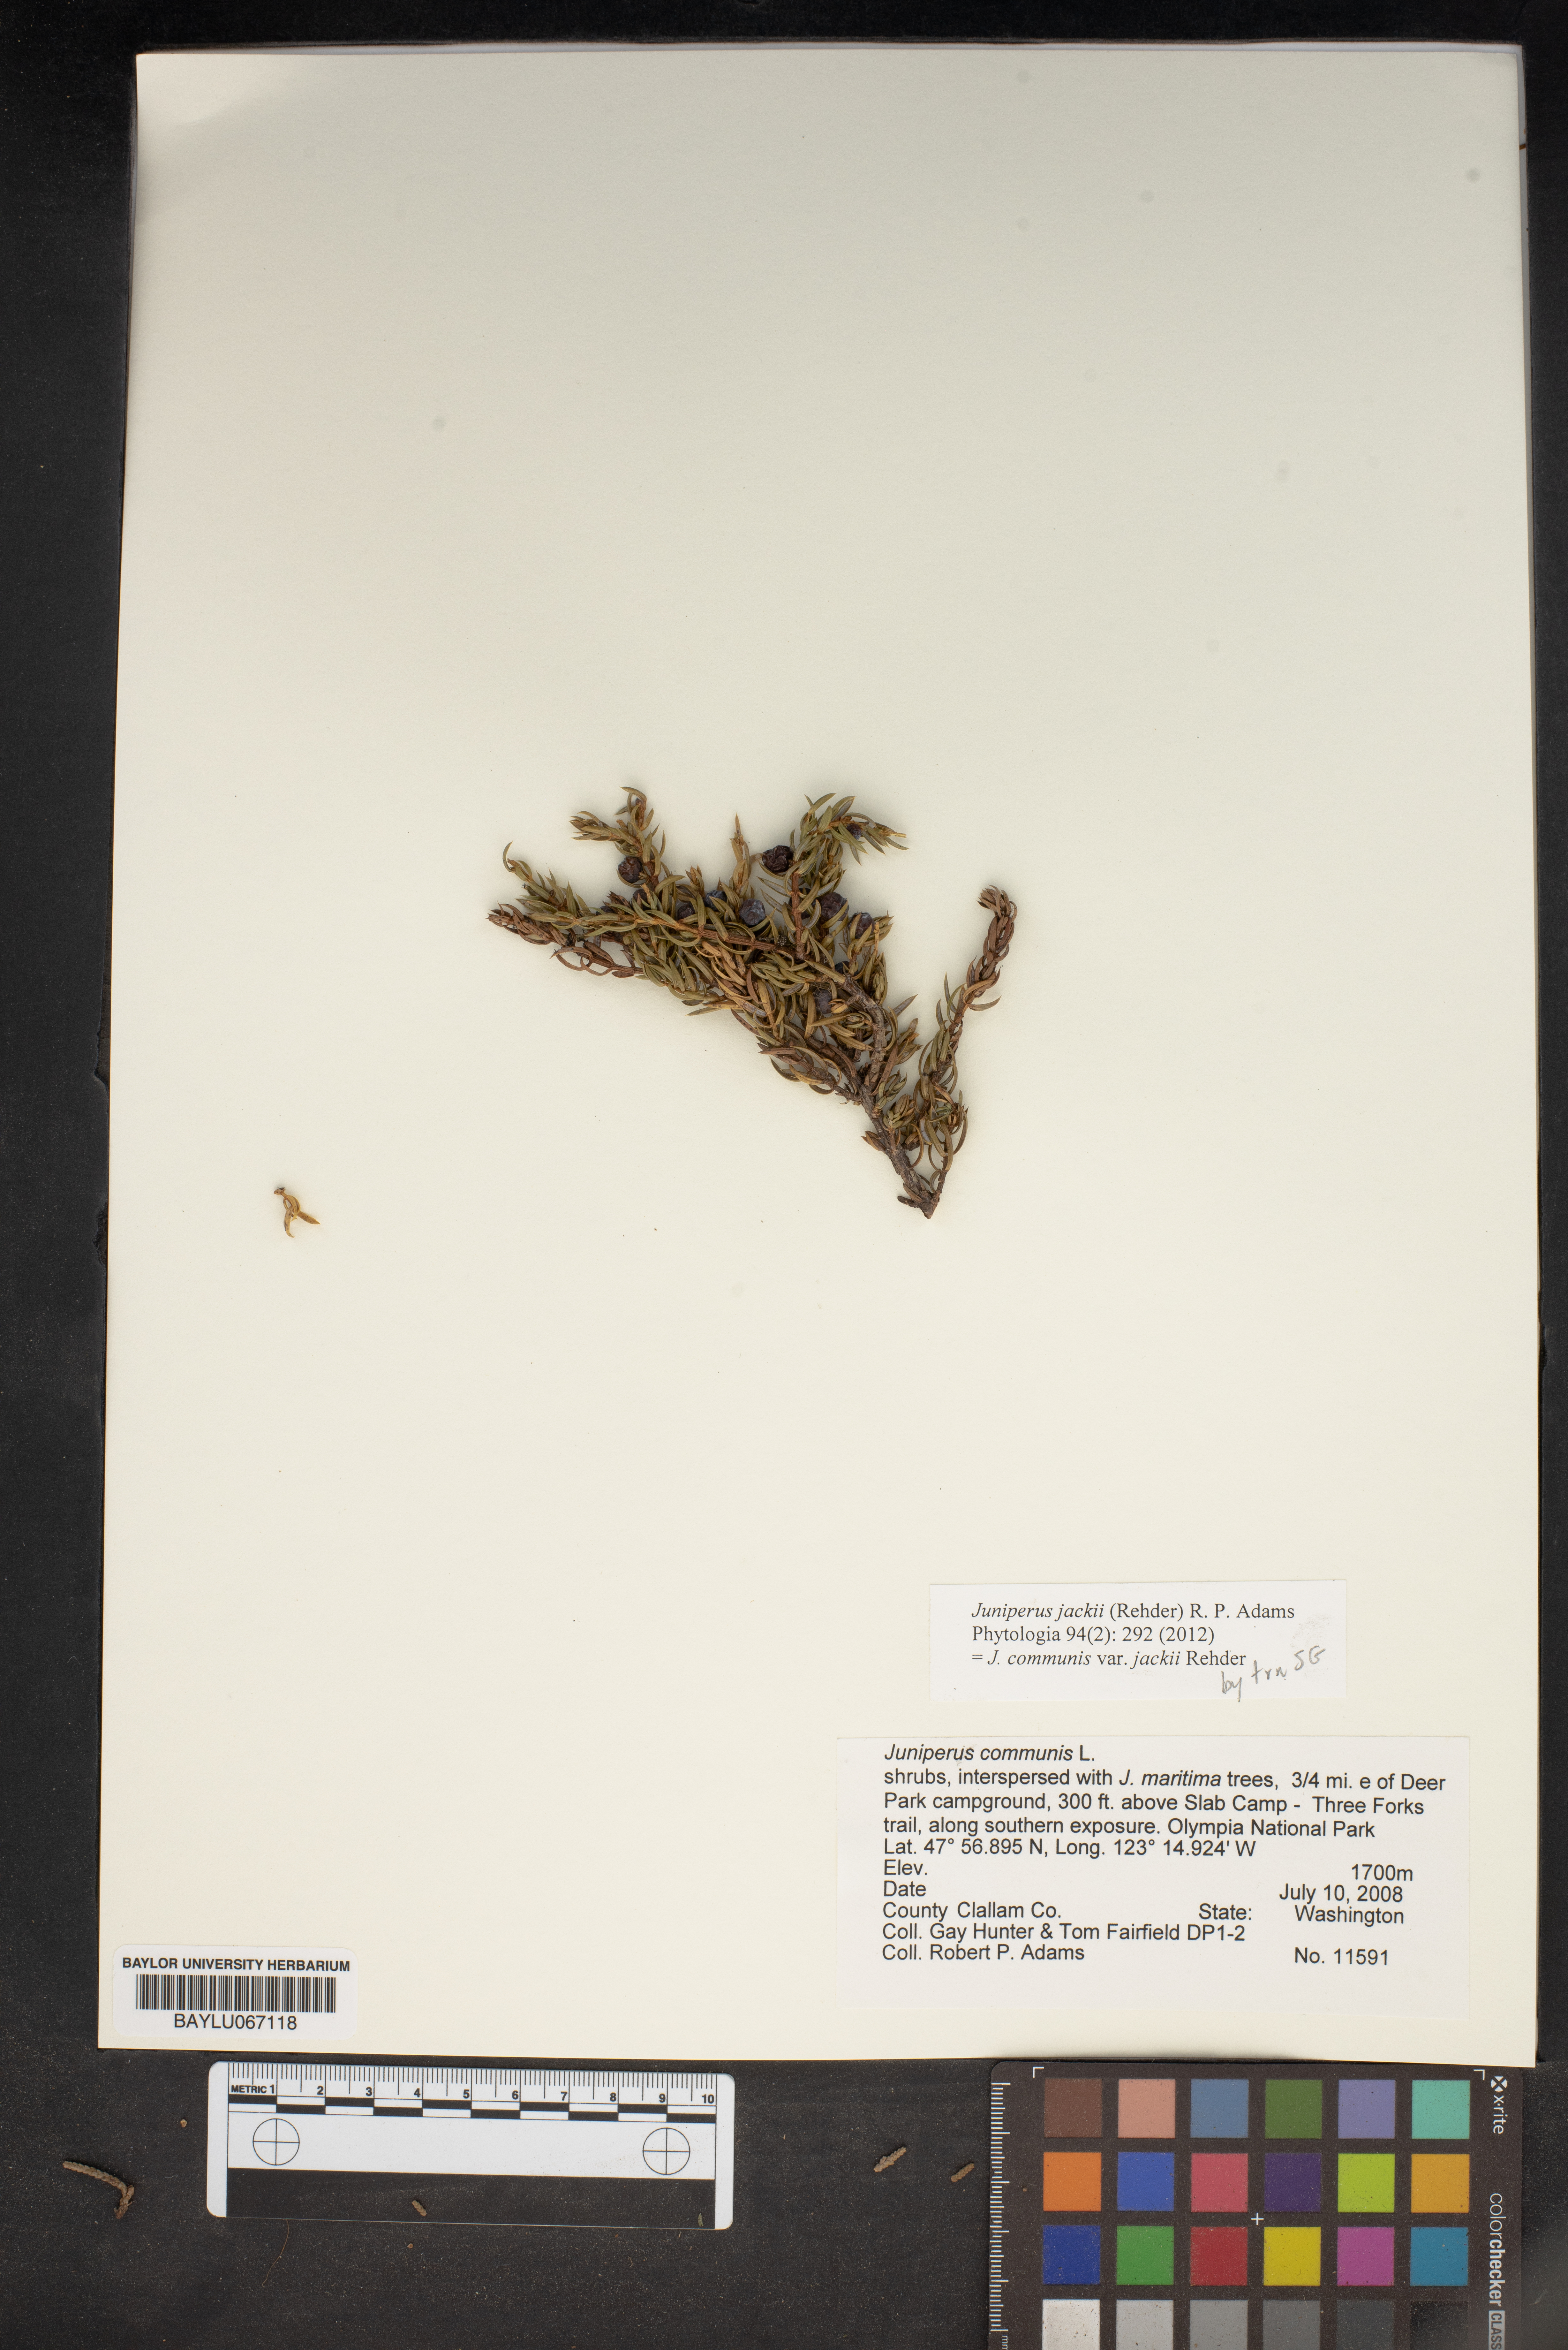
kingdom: Plantae
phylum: Tracheophyta
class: Pinopsida
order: Pinales
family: Cupressaceae
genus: Juniperus
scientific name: Juniperus communis
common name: Common juniper
